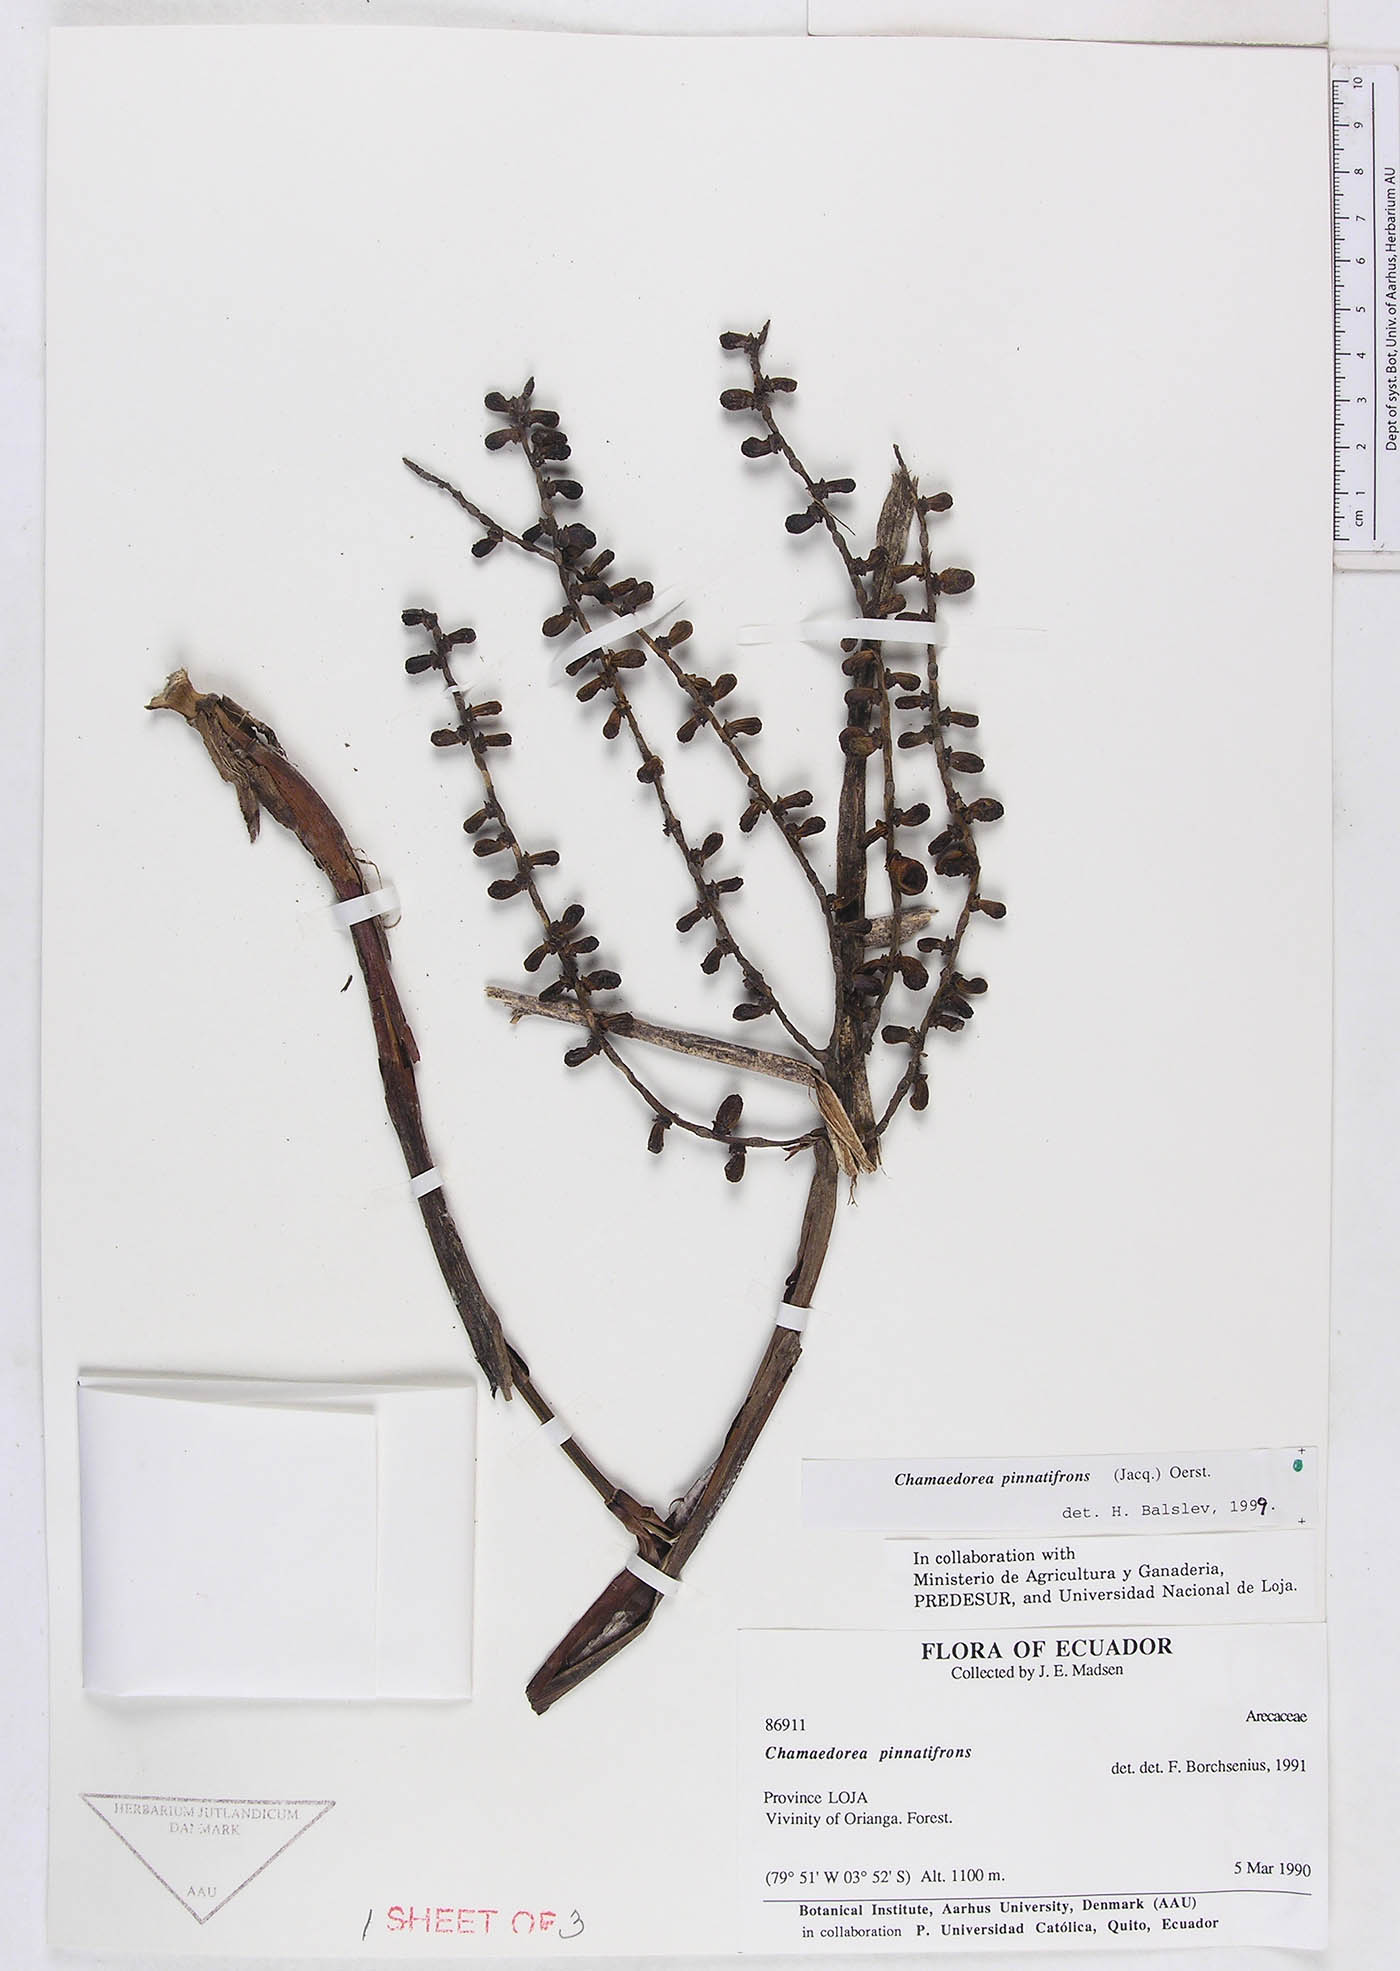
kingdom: Plantae
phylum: Tracheophyta
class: Liliopsida
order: Arecales
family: Arecaceae
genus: Chamaedorea
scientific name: Chamaedorea pinnatifrons
